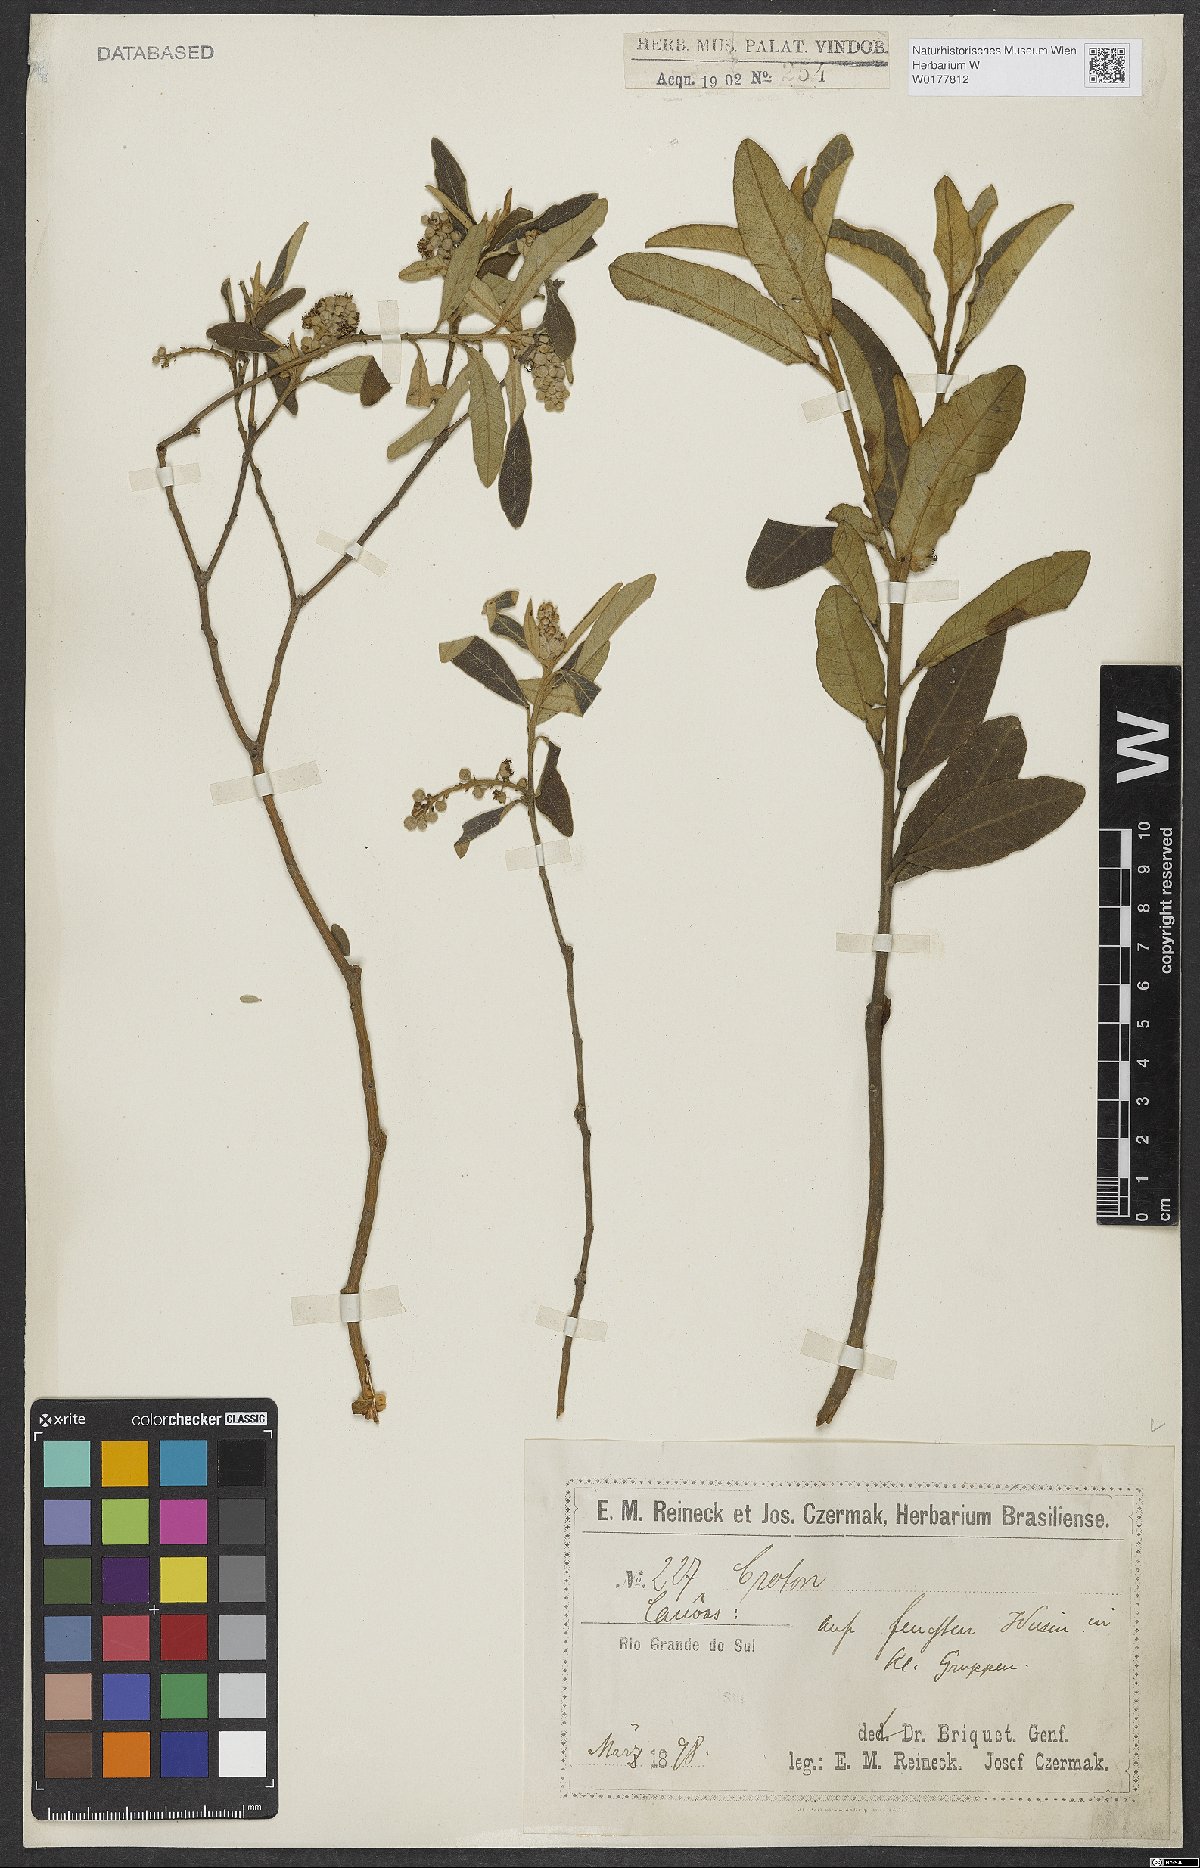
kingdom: Plantae
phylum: Tracheophyta
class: Magnoliopsida
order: Malpighiales
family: Euphorbiaceae
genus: Croton
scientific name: Croton
